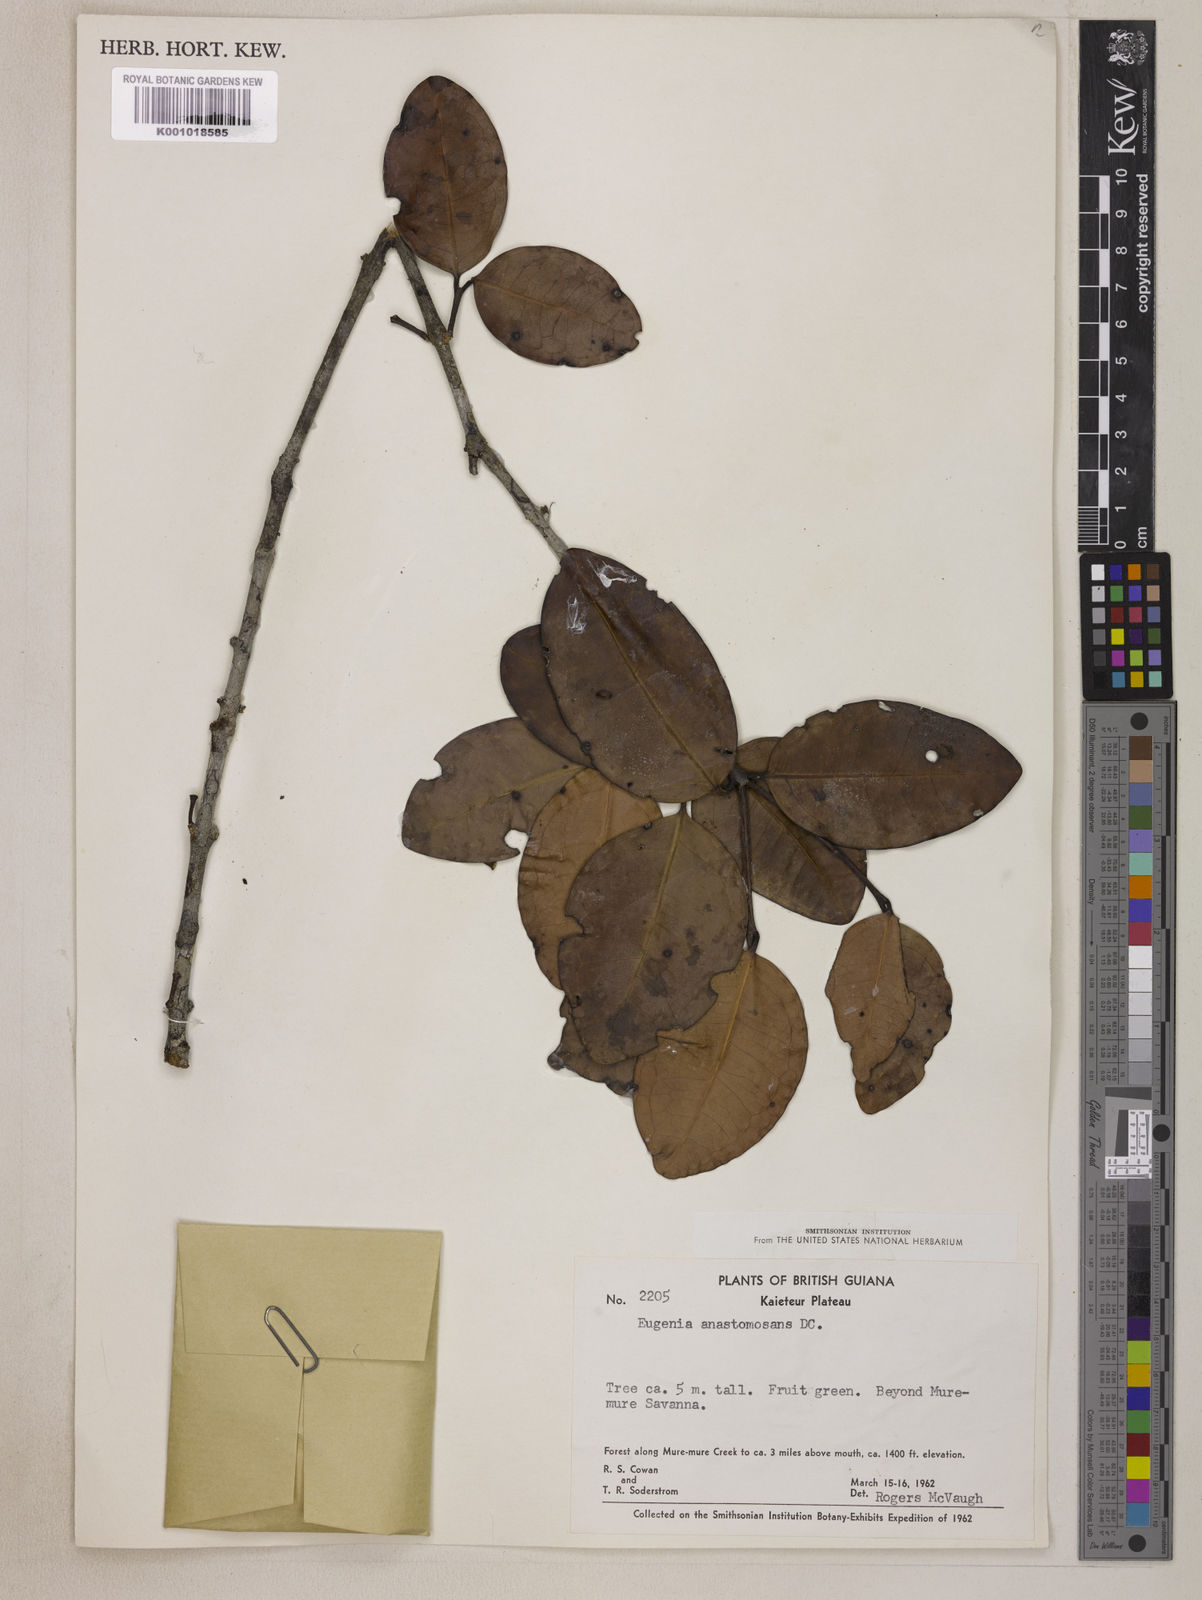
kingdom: Plantae
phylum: Tracheophyta
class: Magnoliopsida
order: Myrtales
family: Myrtaceae
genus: Eugenia
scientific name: Eugenia anastomosans
